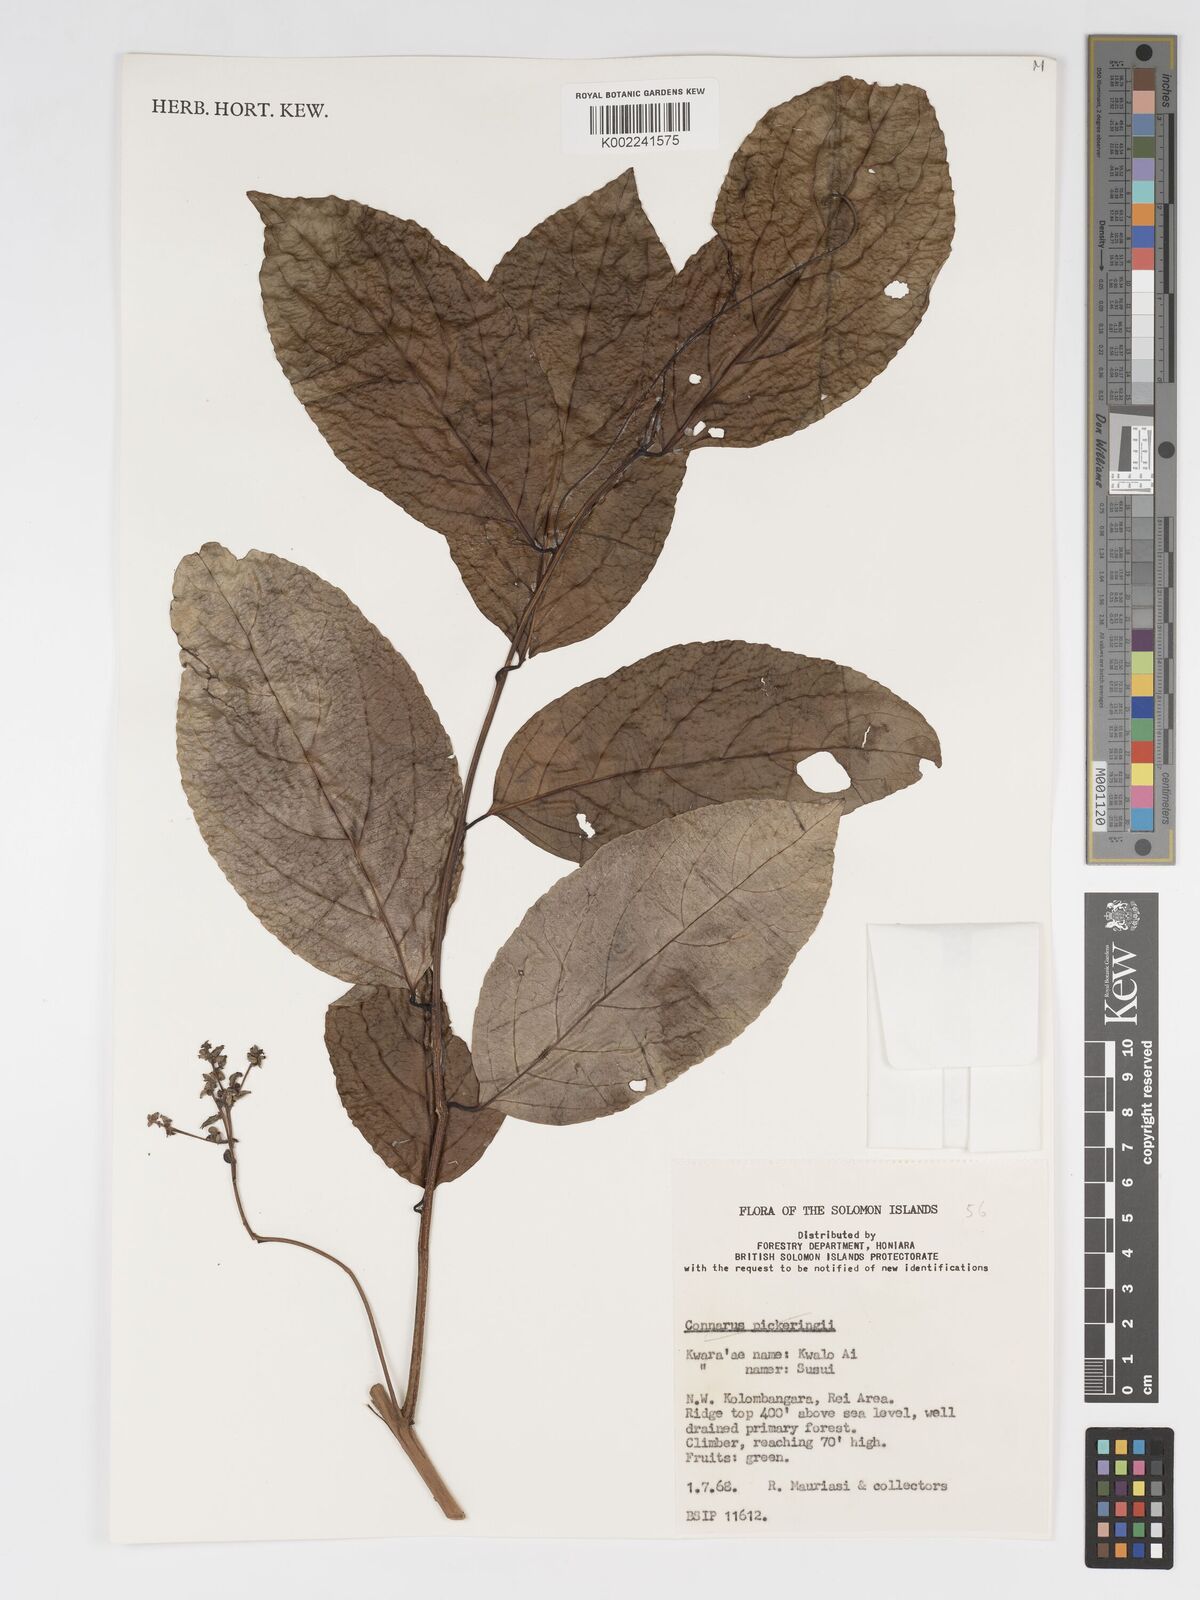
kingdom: Plantae
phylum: Tracheophyta
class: Magnoliopsida
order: Malpighiales
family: Salicaceae
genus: Flacourtia
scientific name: Flacourtia
